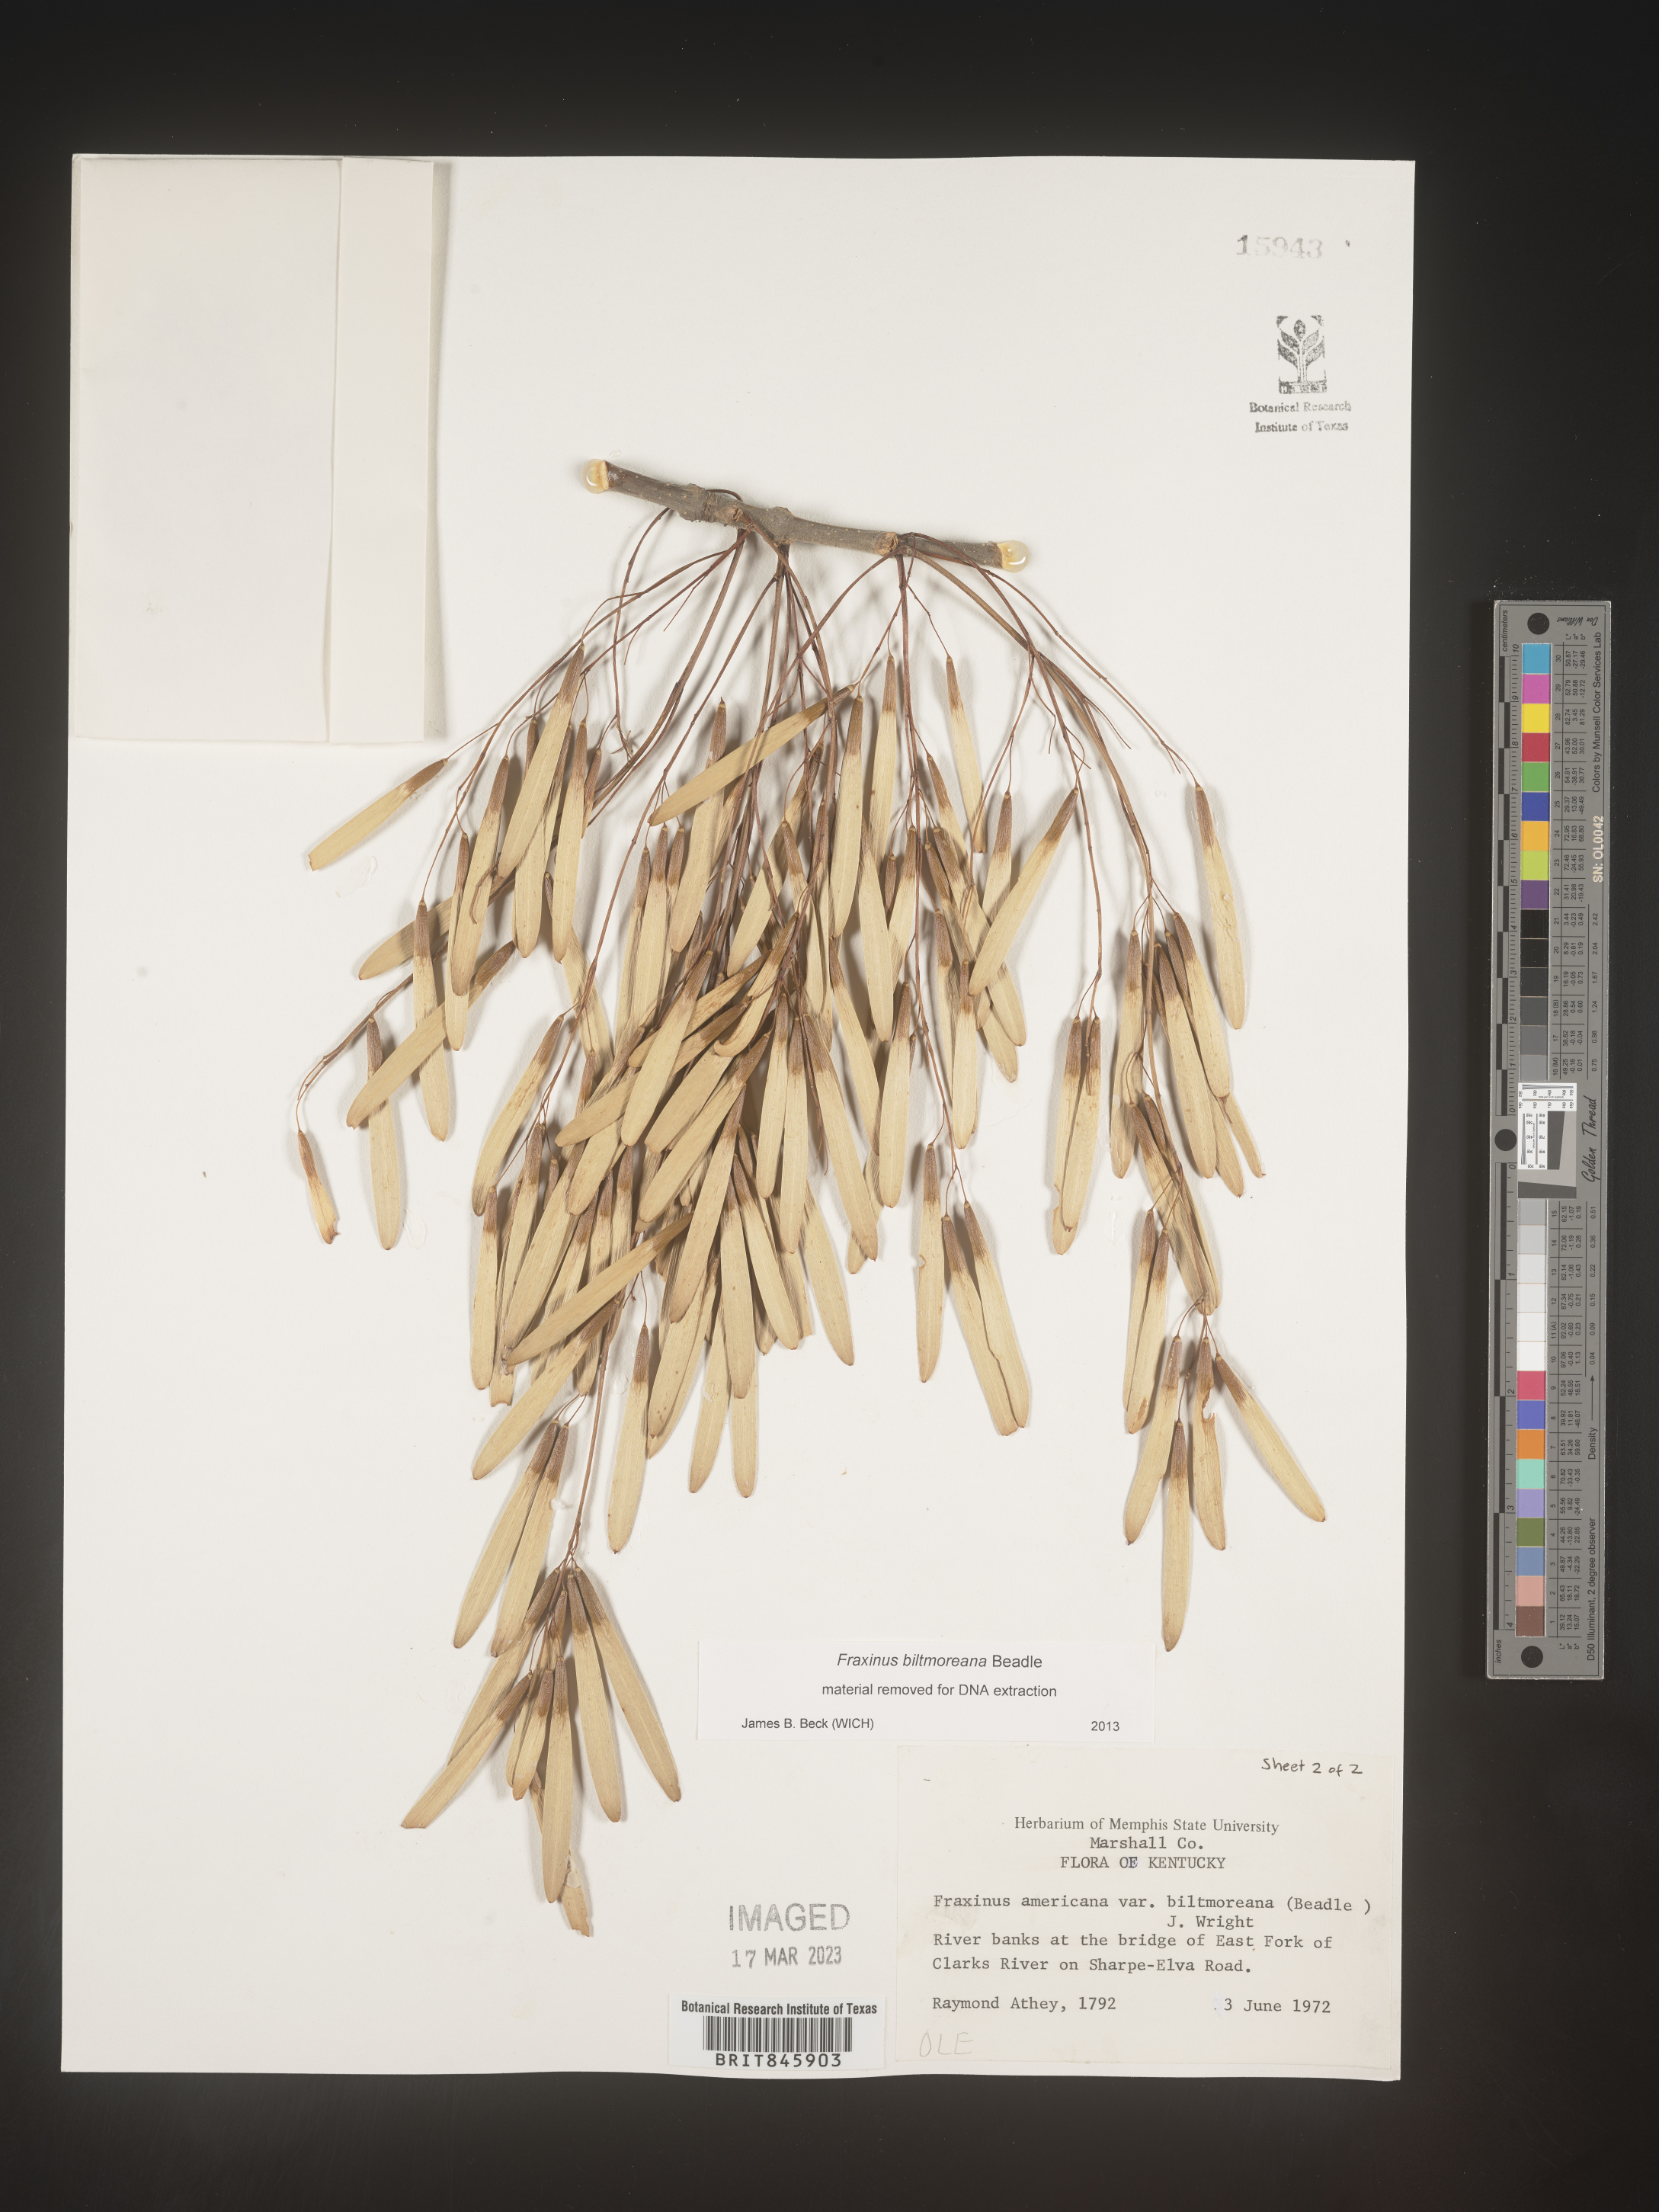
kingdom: Plantae
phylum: Tracheophyta
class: Magnoliopsida
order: Lamiales
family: Oleaceae
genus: Fraxinus
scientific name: Fraxinus americana
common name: White ash
